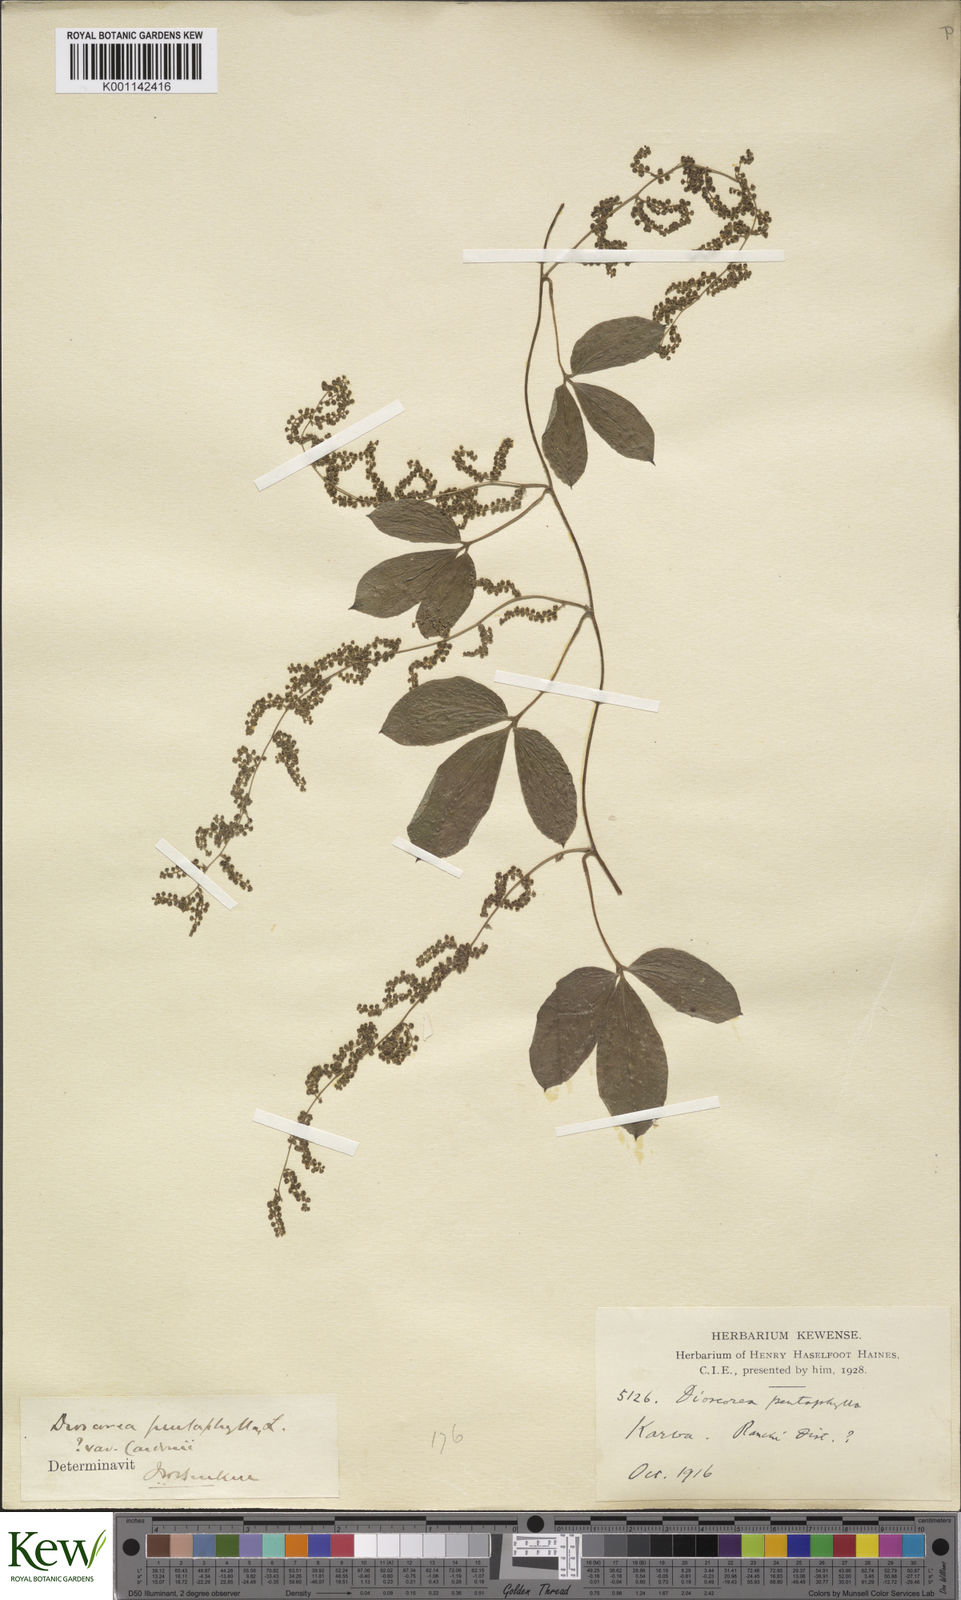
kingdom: Plantae
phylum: Tracheophyta
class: Liliopsida
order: Dioscoreales
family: Dioscoreaceae
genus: Dioscorea
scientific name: Dioscorea pentaphylla
